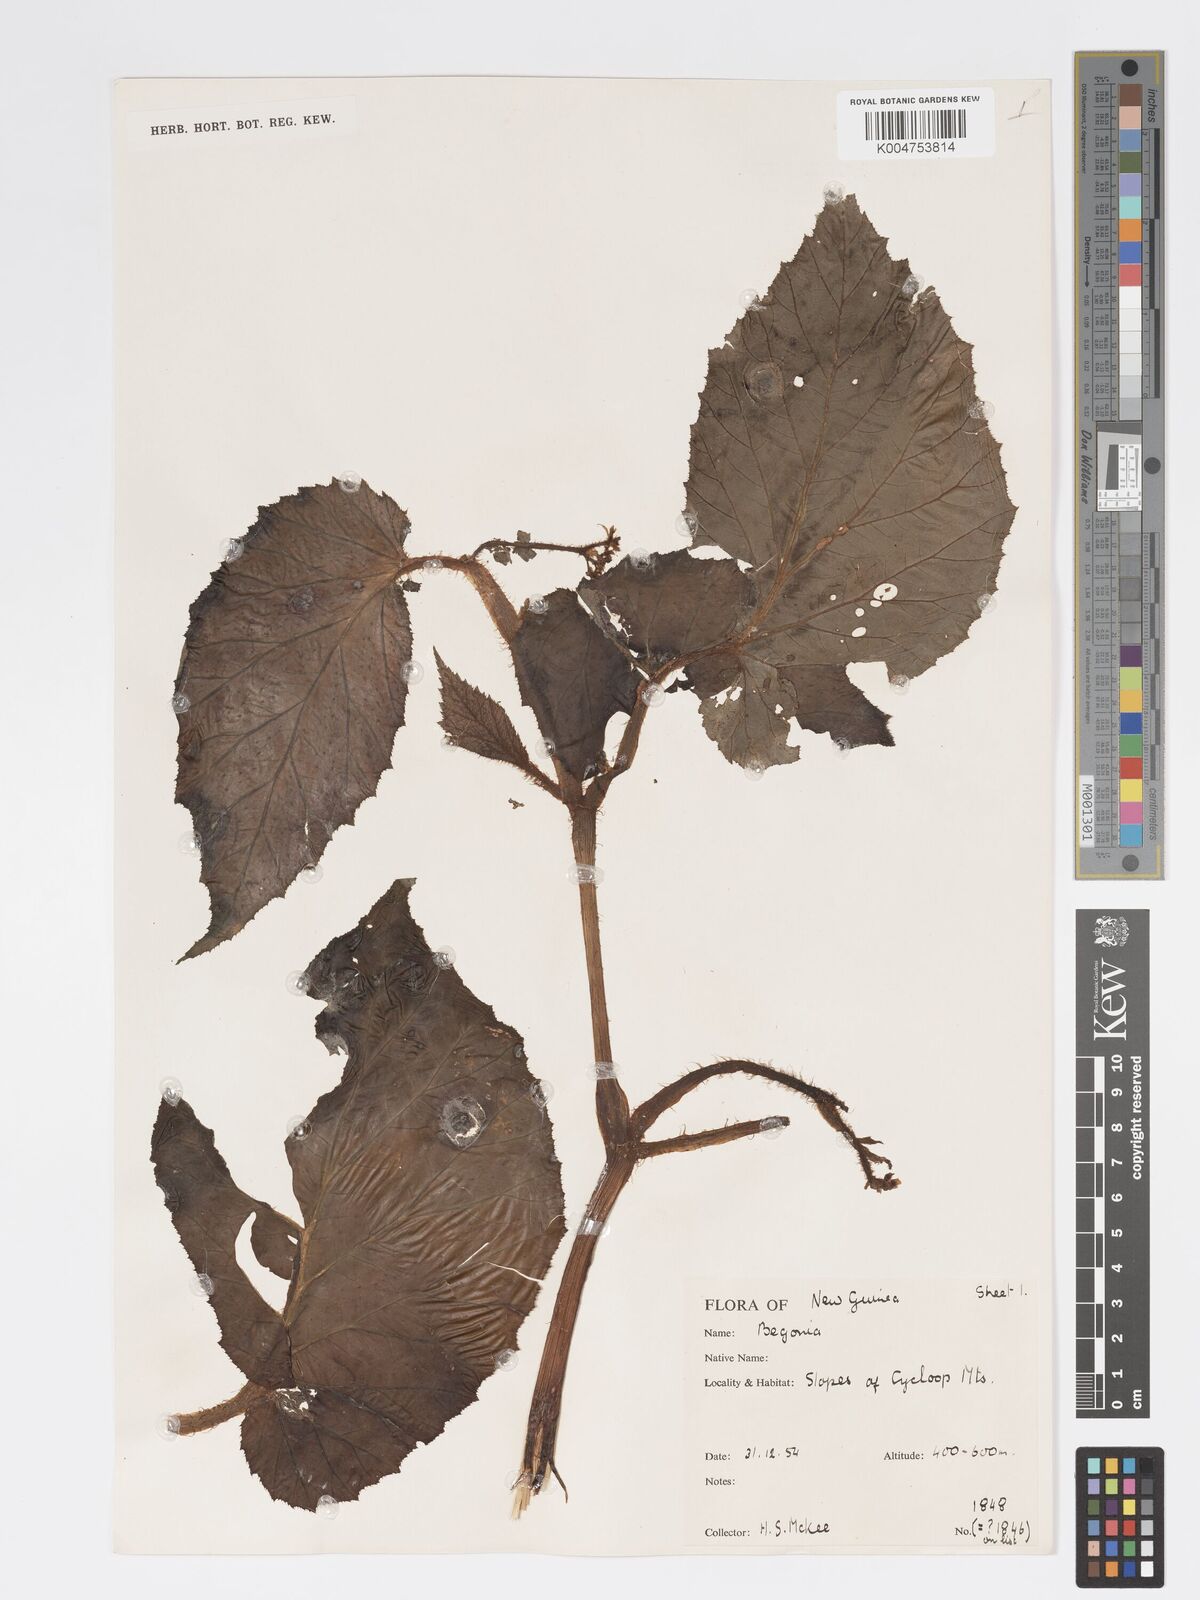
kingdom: Plantae
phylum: Tracheophyta
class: Magnoliopsida
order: Cucurbitales
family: Begoniaceae
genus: Begonia
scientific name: Begonia torricellensis
